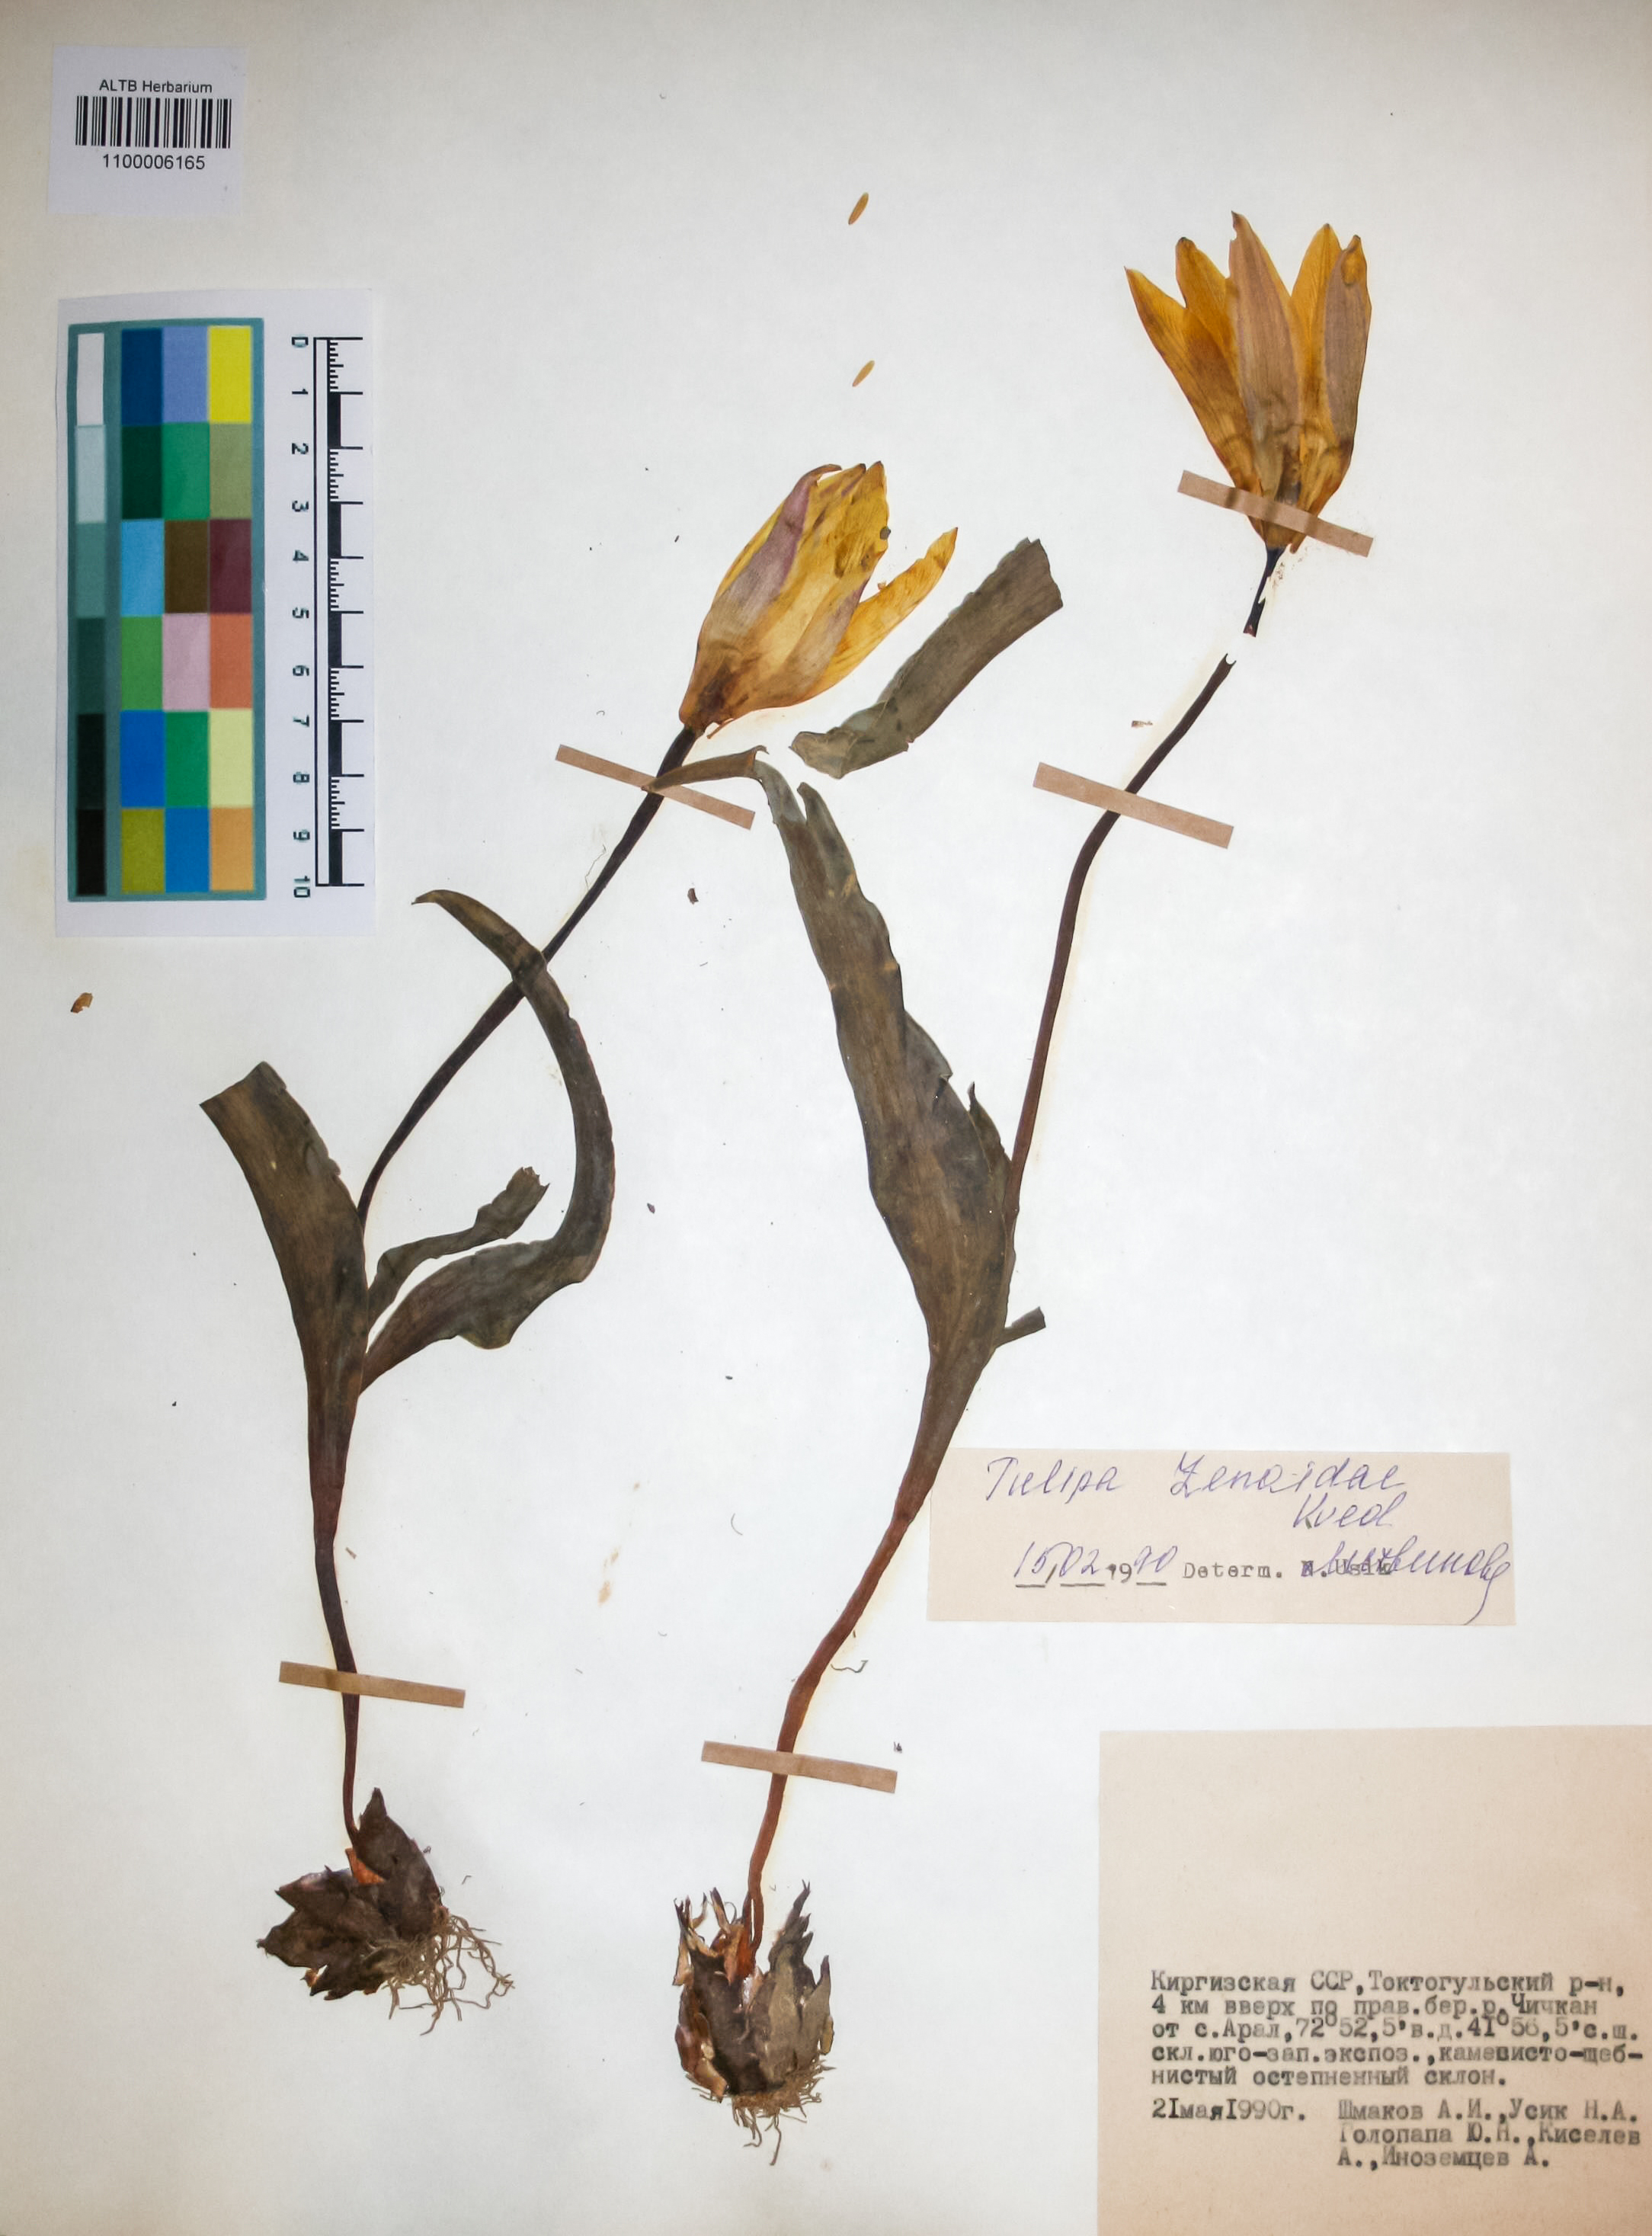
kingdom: Plantae
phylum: Tracheophyta
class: Liliopsida
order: Liliales
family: Liliaceae
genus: Tulipa
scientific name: Tulipa lehmanniana
